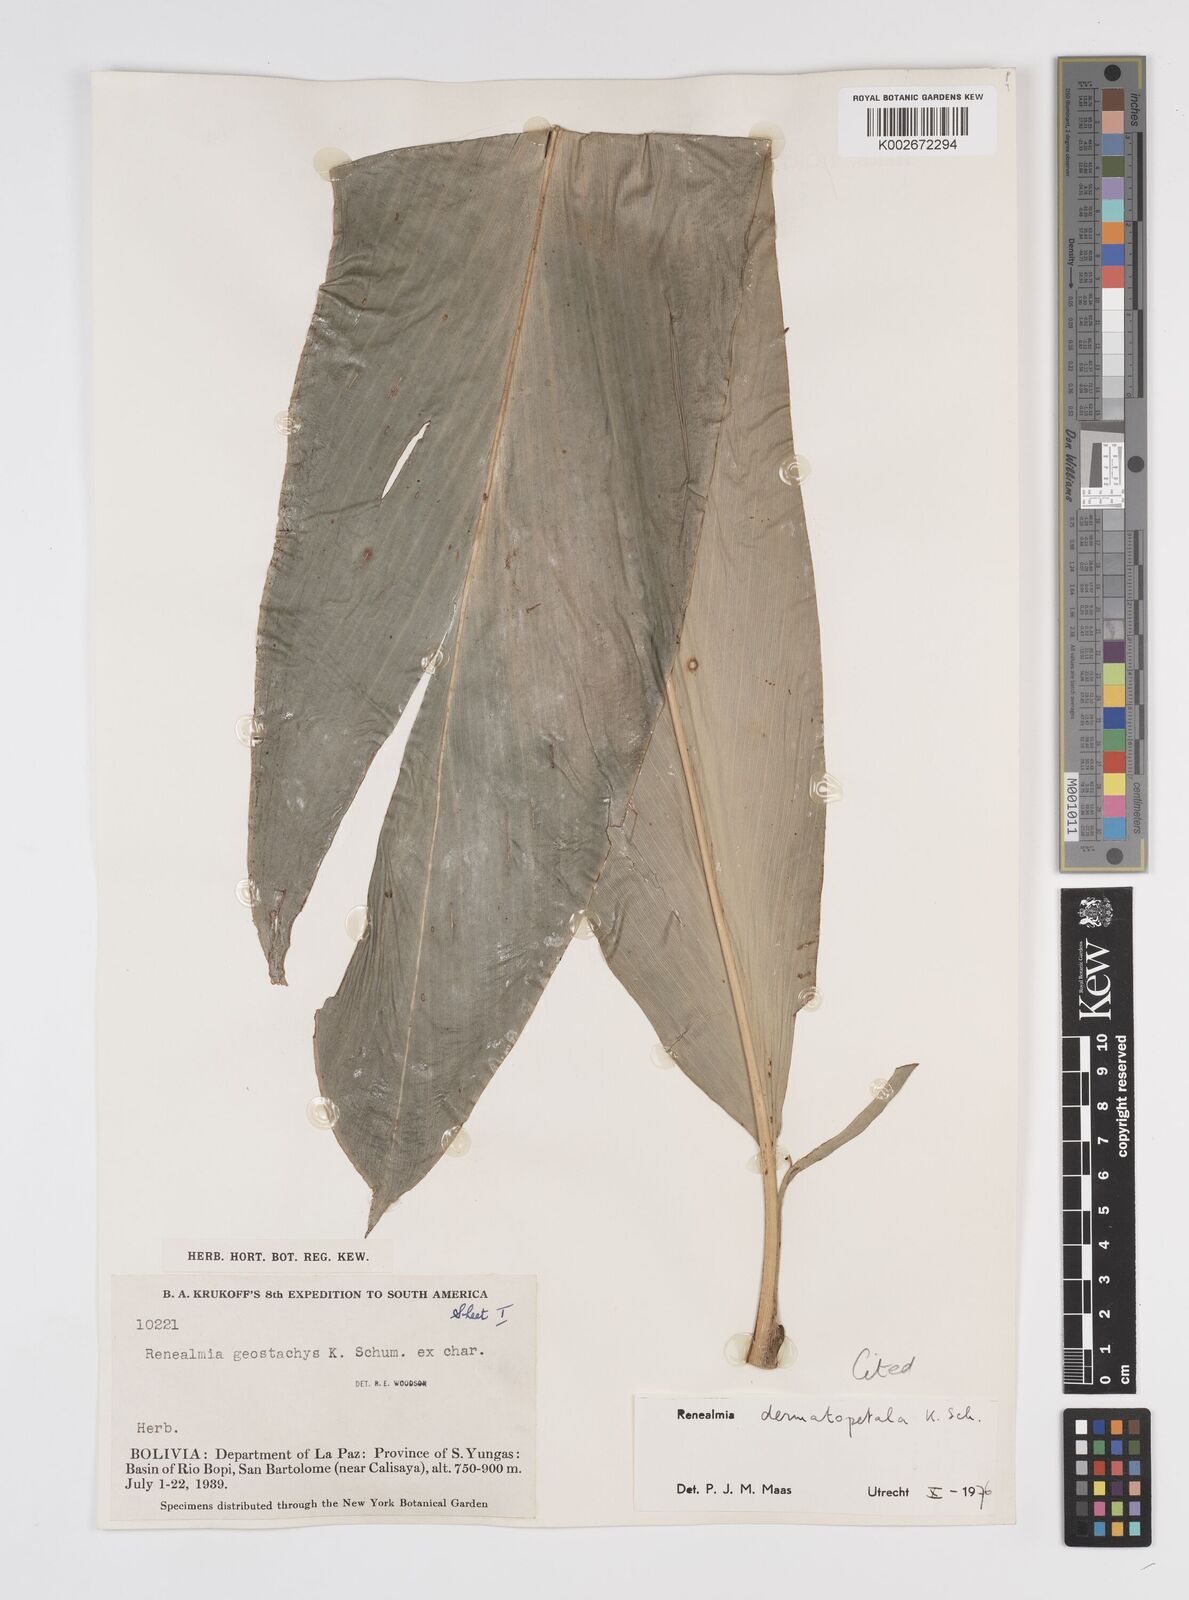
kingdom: Plantae
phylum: Tracheophyta
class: Liliopsida
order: Zingiberales
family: Zingiberaceae
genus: Renealmia
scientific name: Renealmia dermatopetala
